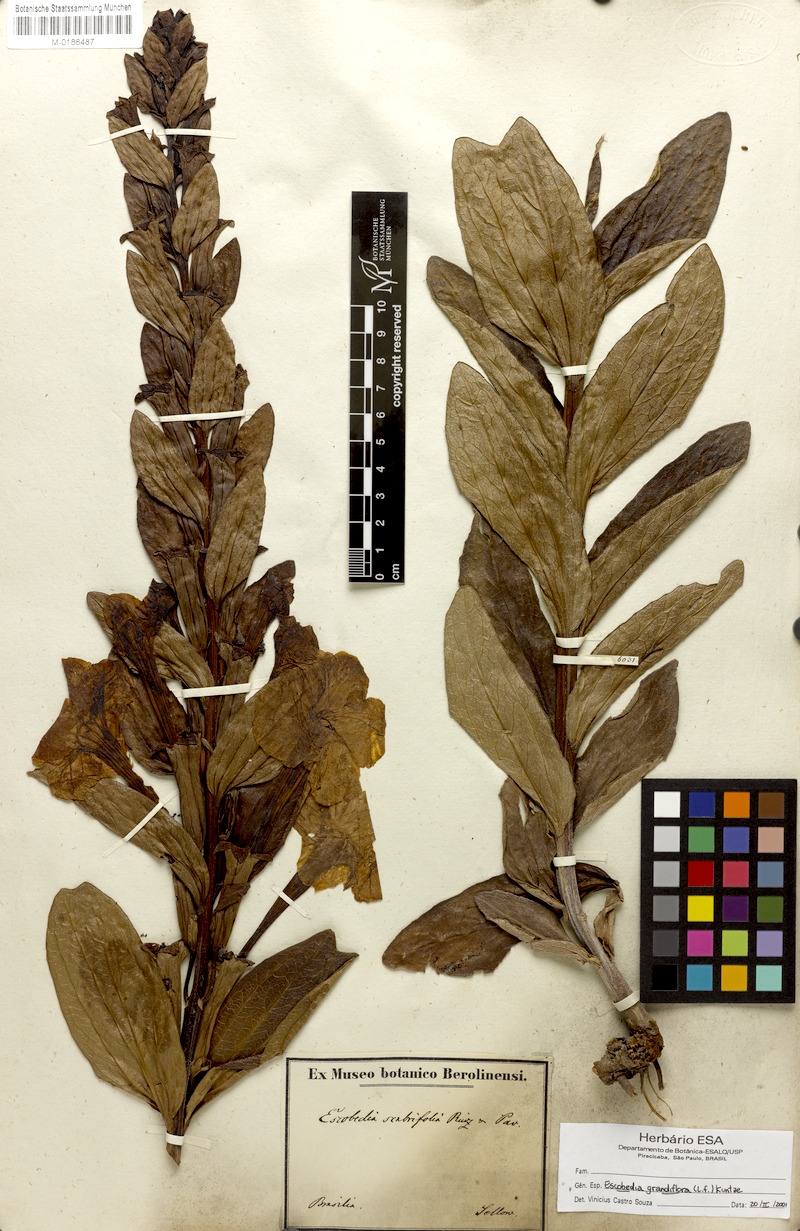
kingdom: Plantae
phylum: Tracheophyta
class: Magnoliopsida
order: Lamiales
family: Orobanchaceae
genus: Escobedia
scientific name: Escobedia grandiflora
